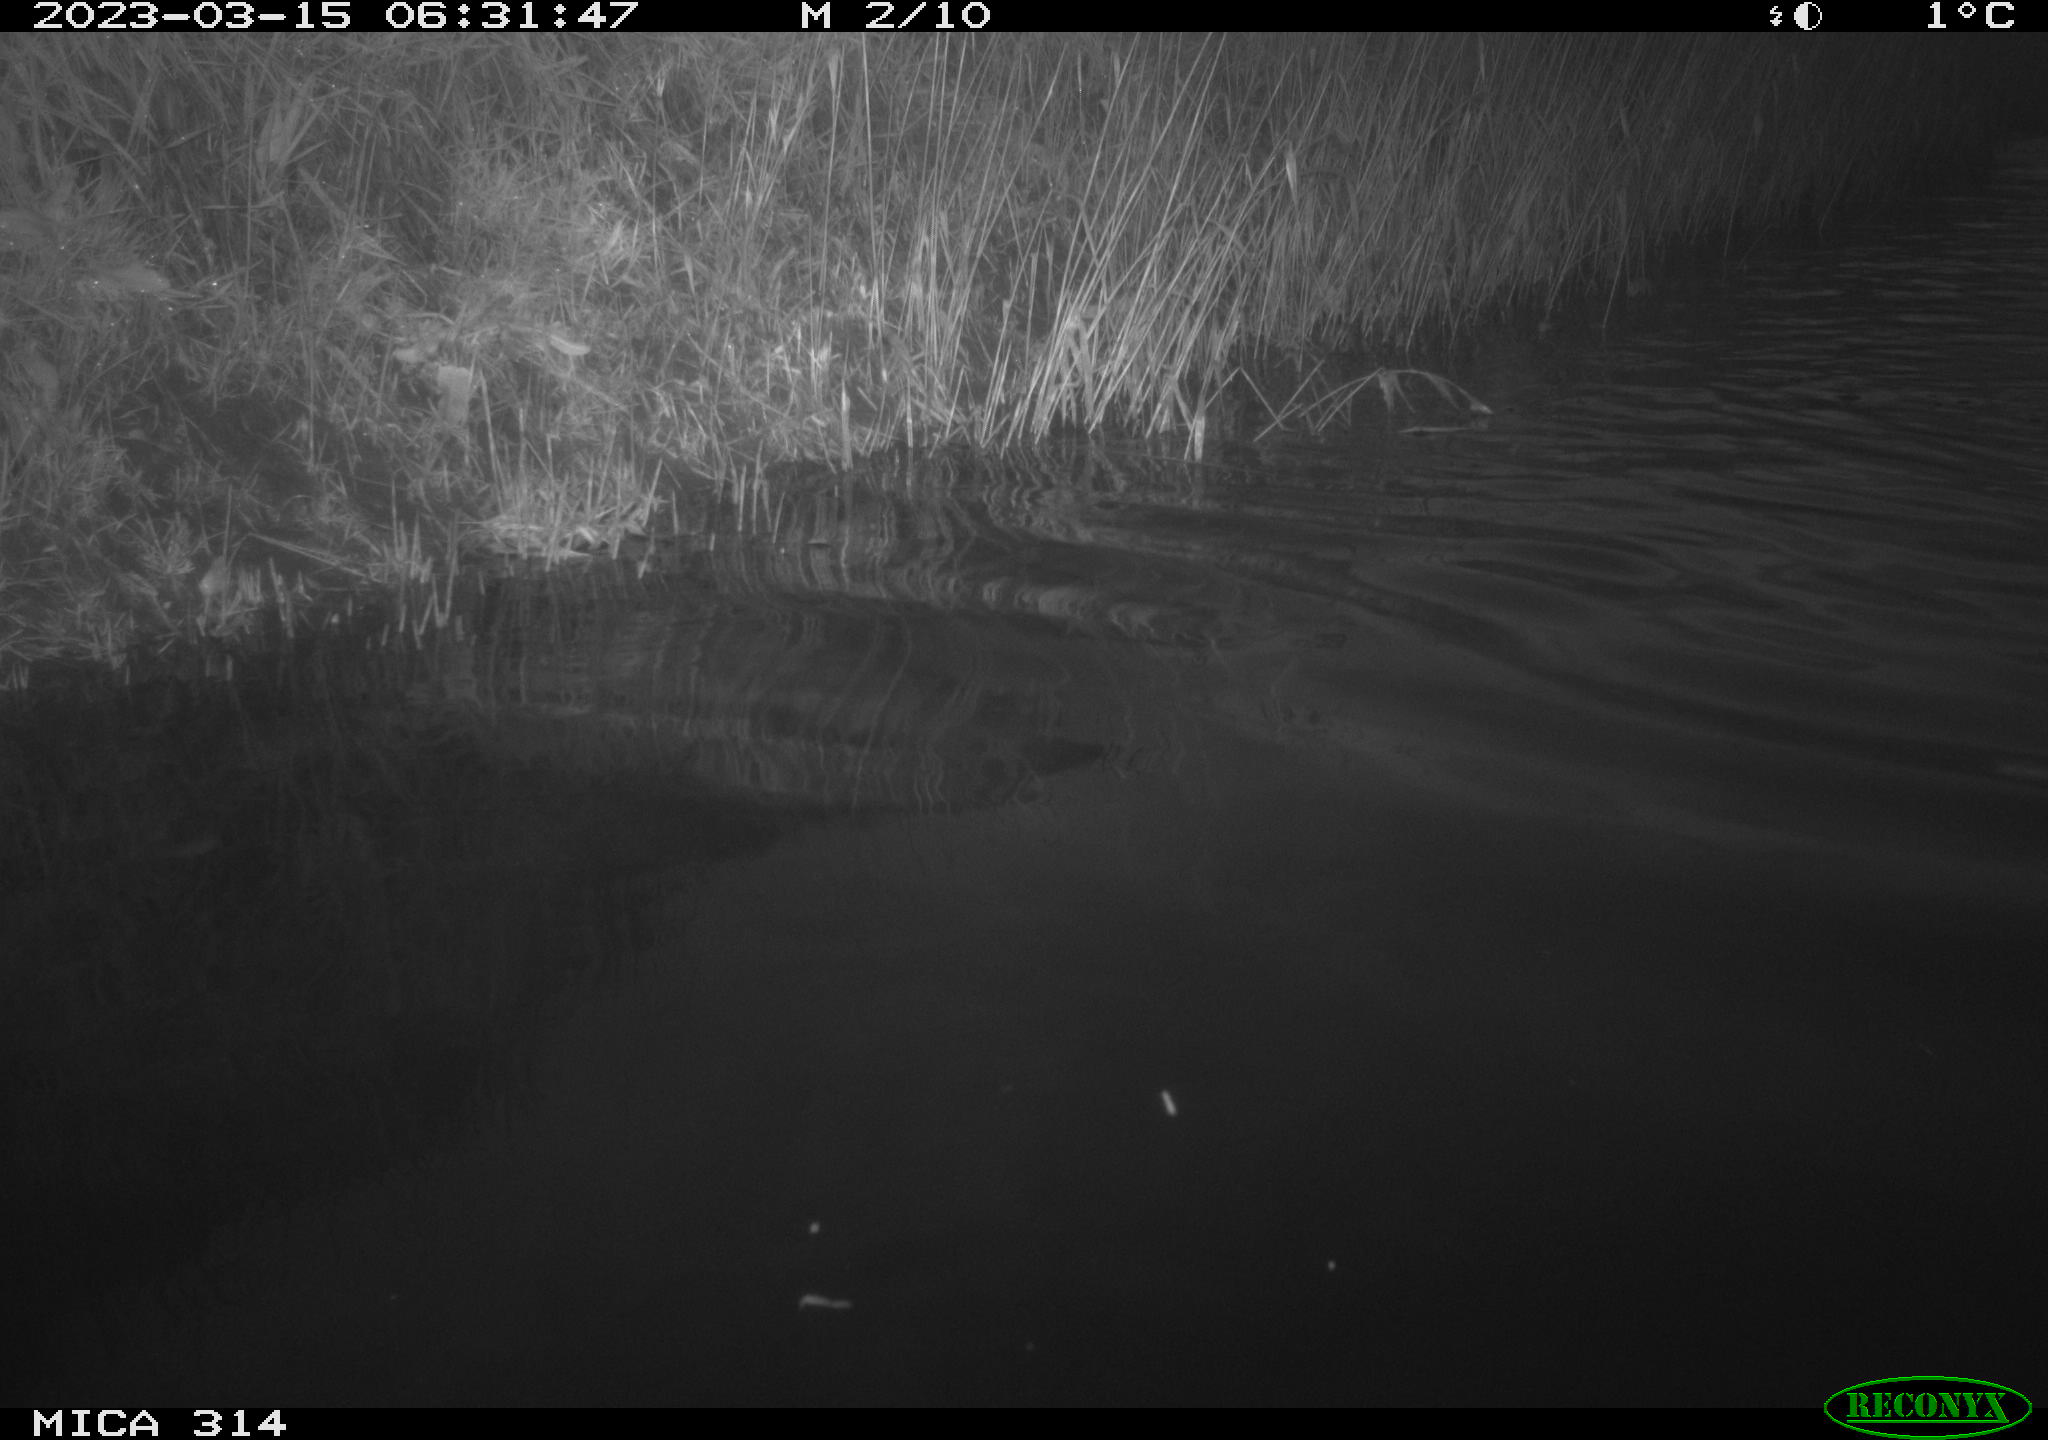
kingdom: Animalia
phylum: Chordata
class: Aves
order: Gruiformes
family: Rallidae
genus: Gallinula
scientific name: Gallinula chloropus
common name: Common moorhen
